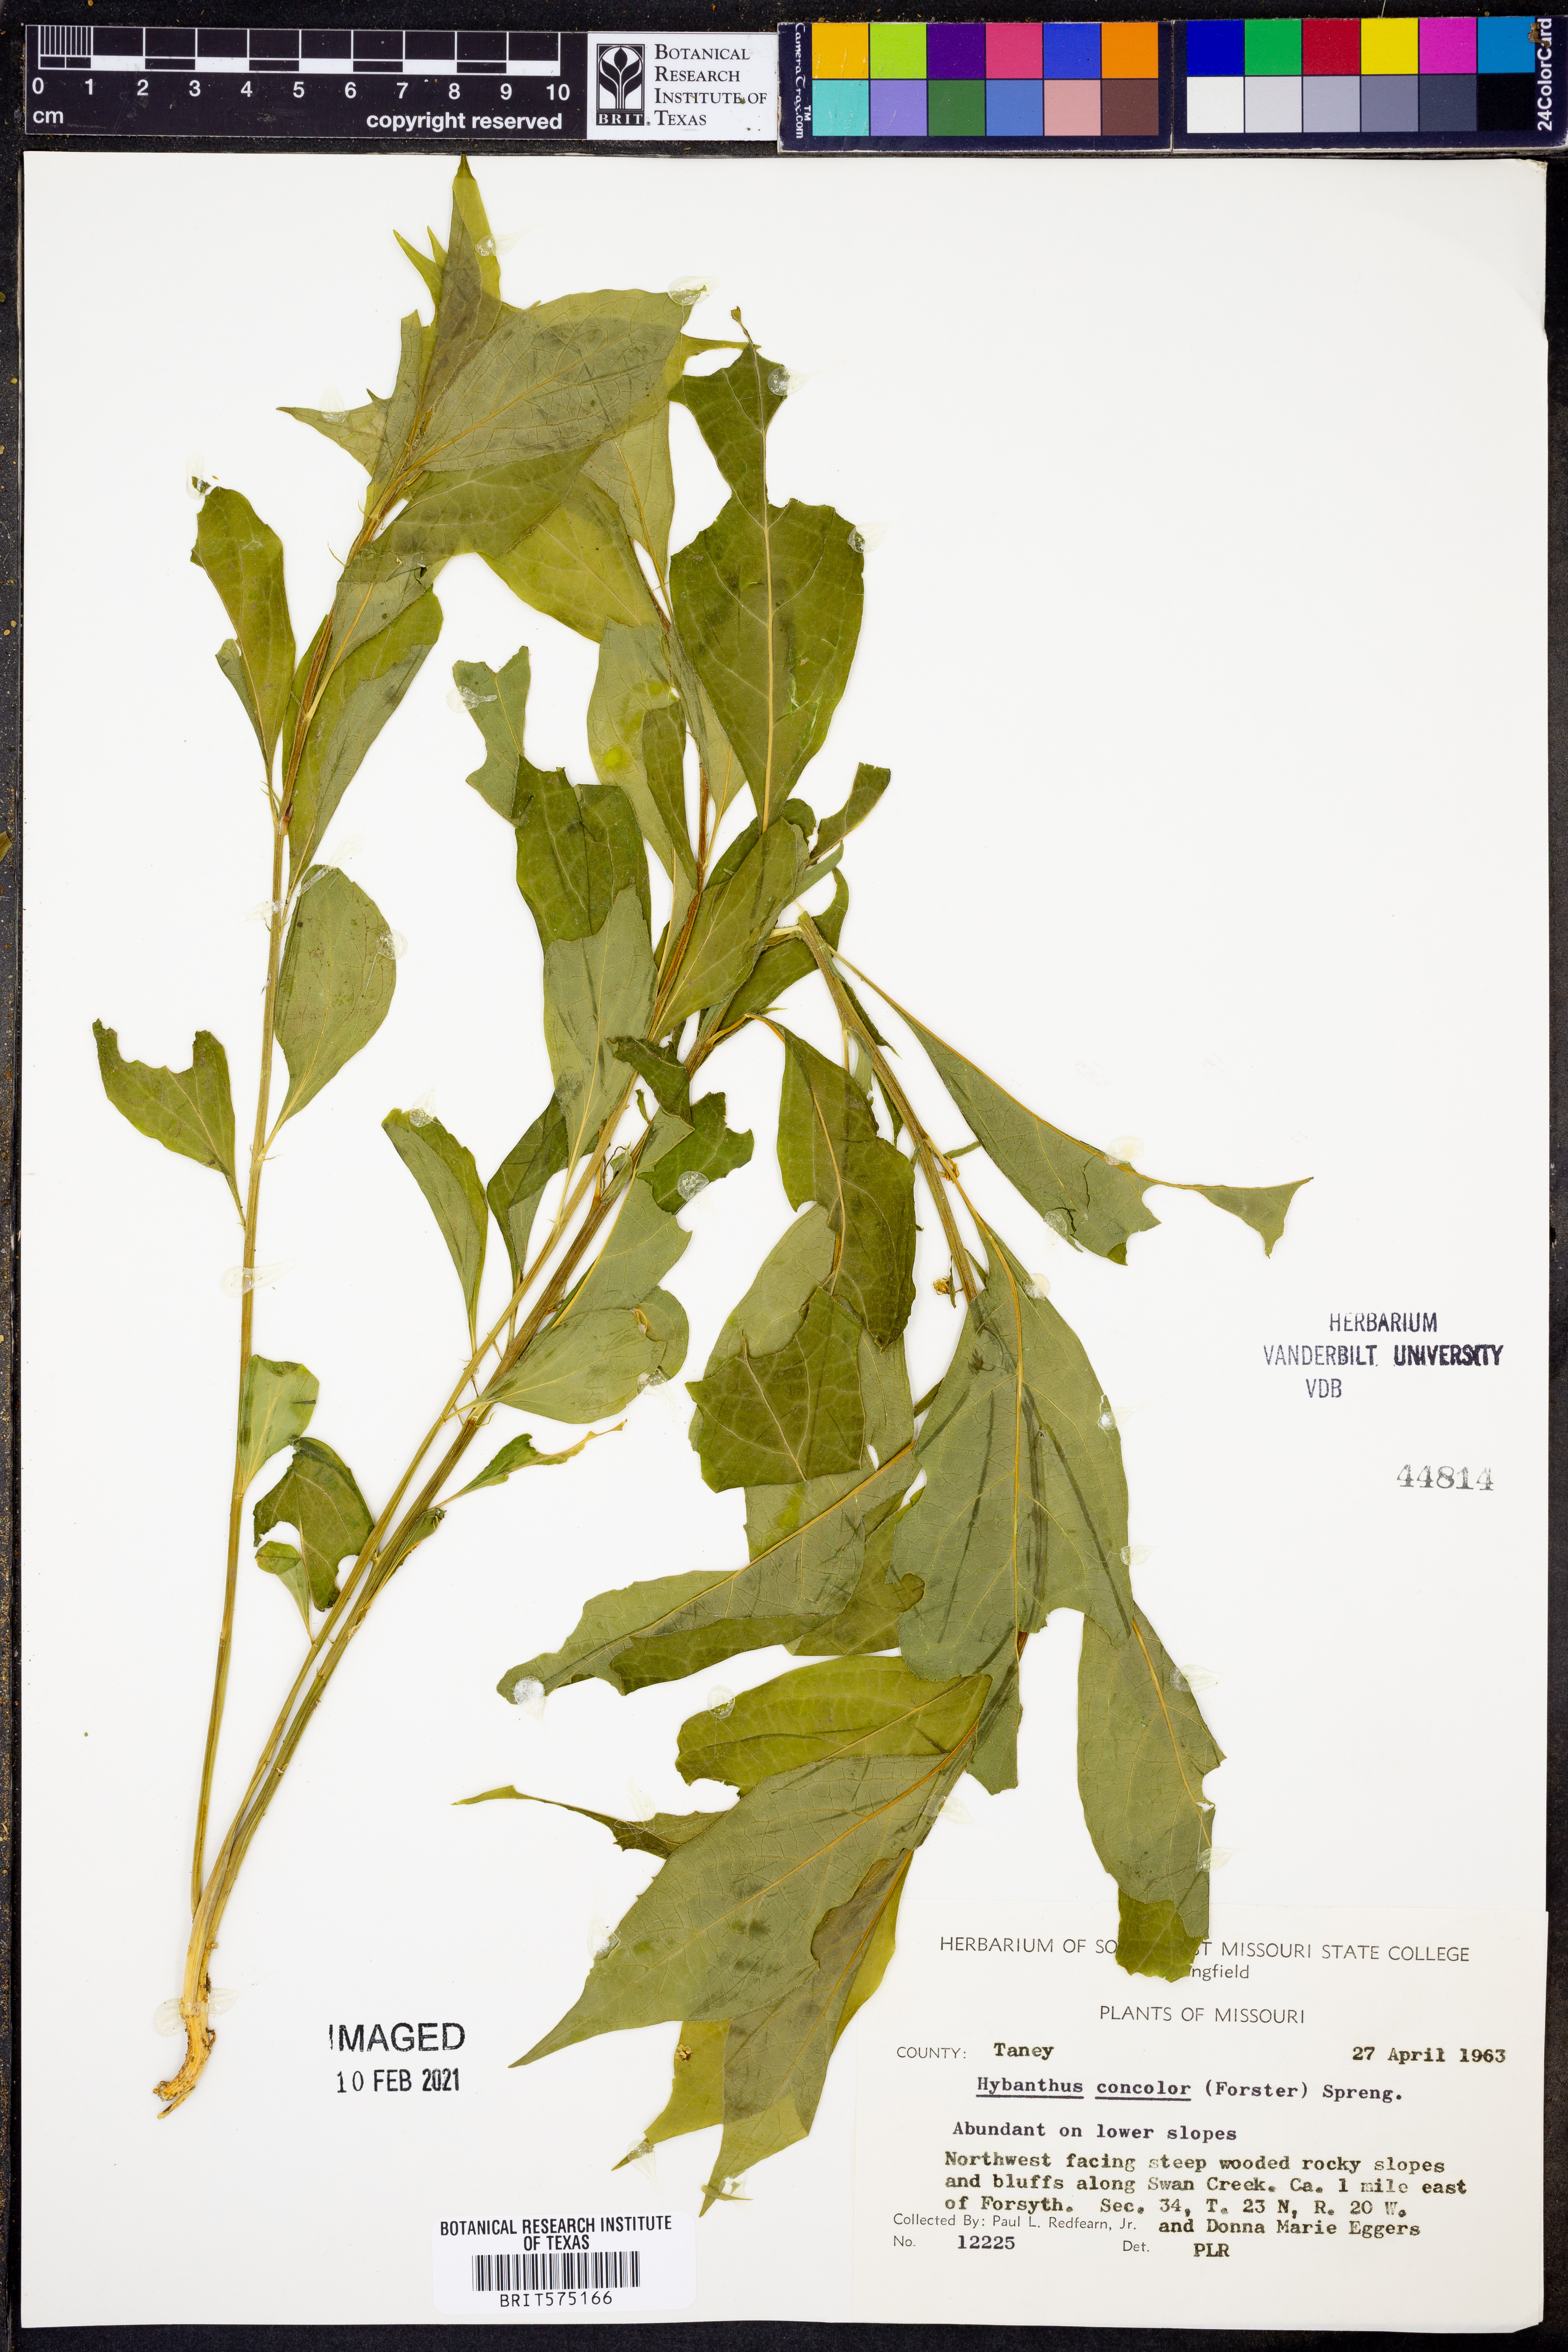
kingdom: Plantae
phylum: Tracheophyta
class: Magnoliopsida
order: Malpighiales
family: Violaceae
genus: Cubelium
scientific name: Cubelium concolor
